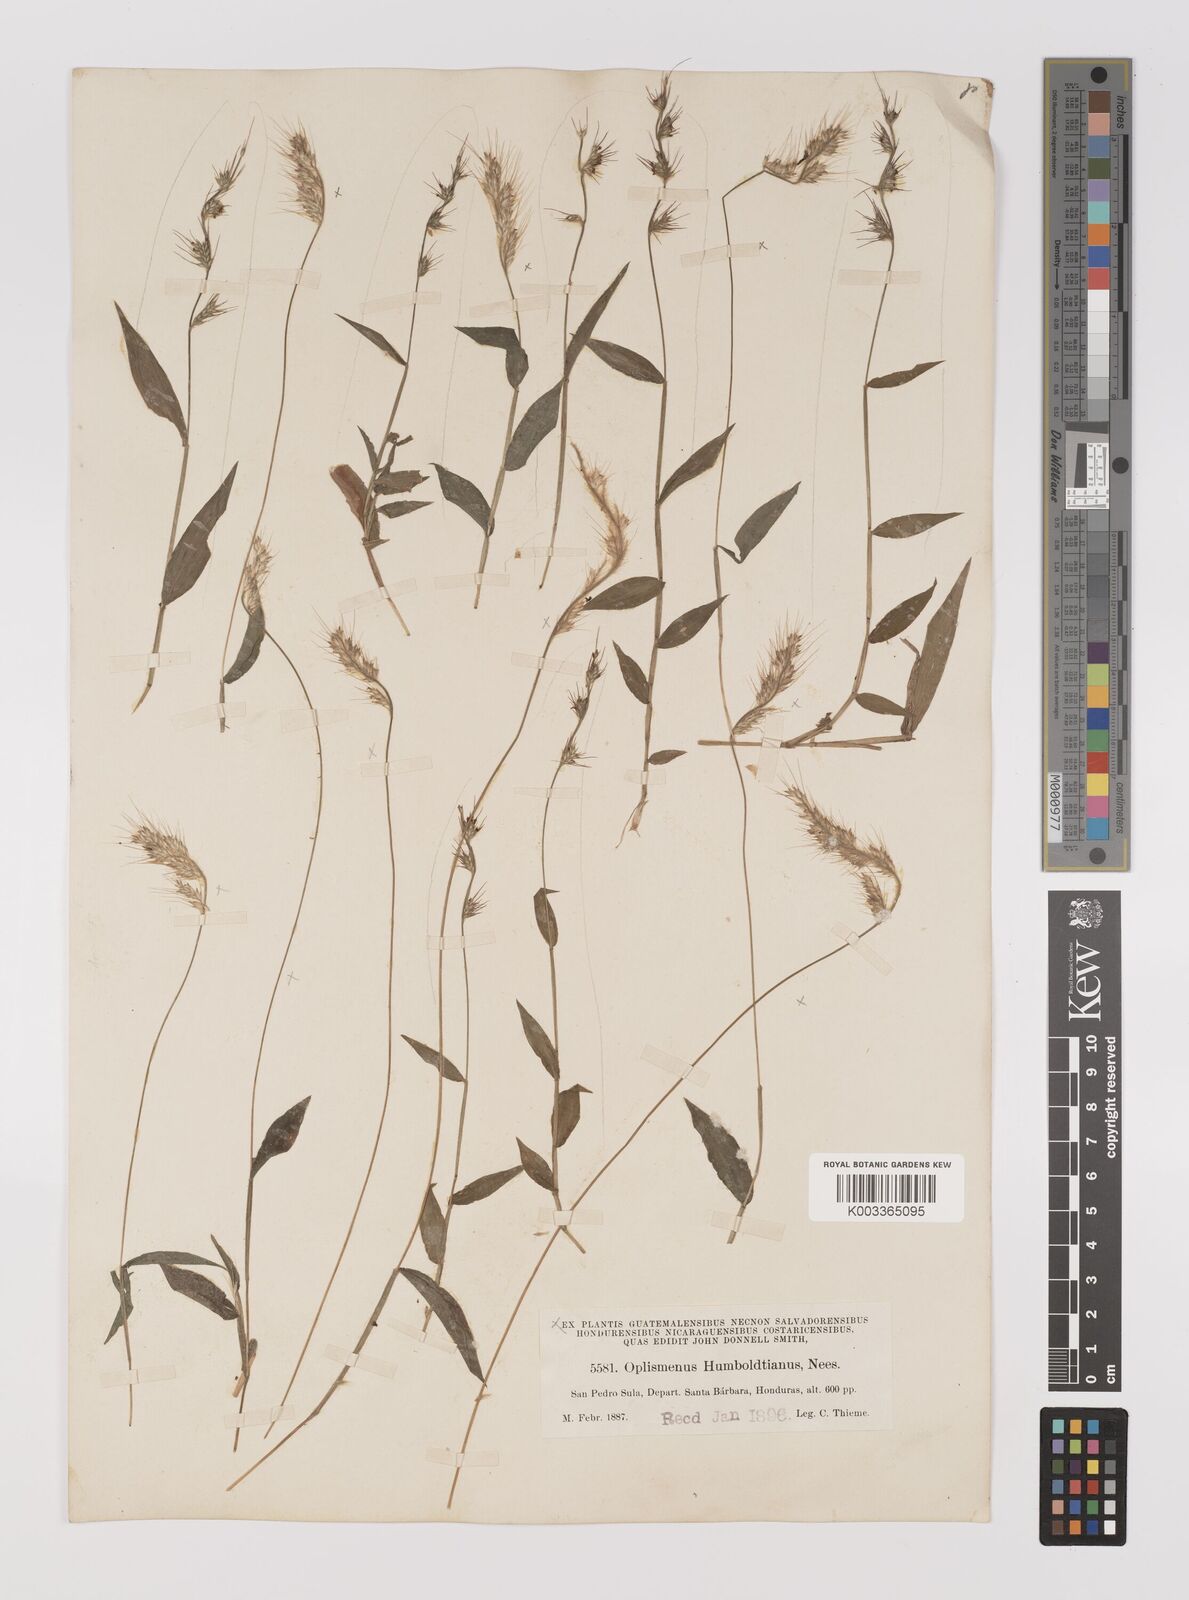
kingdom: Plantae
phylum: Tracheophyta
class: Liliopsida
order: Poales
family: Poaceae
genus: Oplismenus
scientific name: Oplismenus burmanni
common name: Burmann's basketgrass
